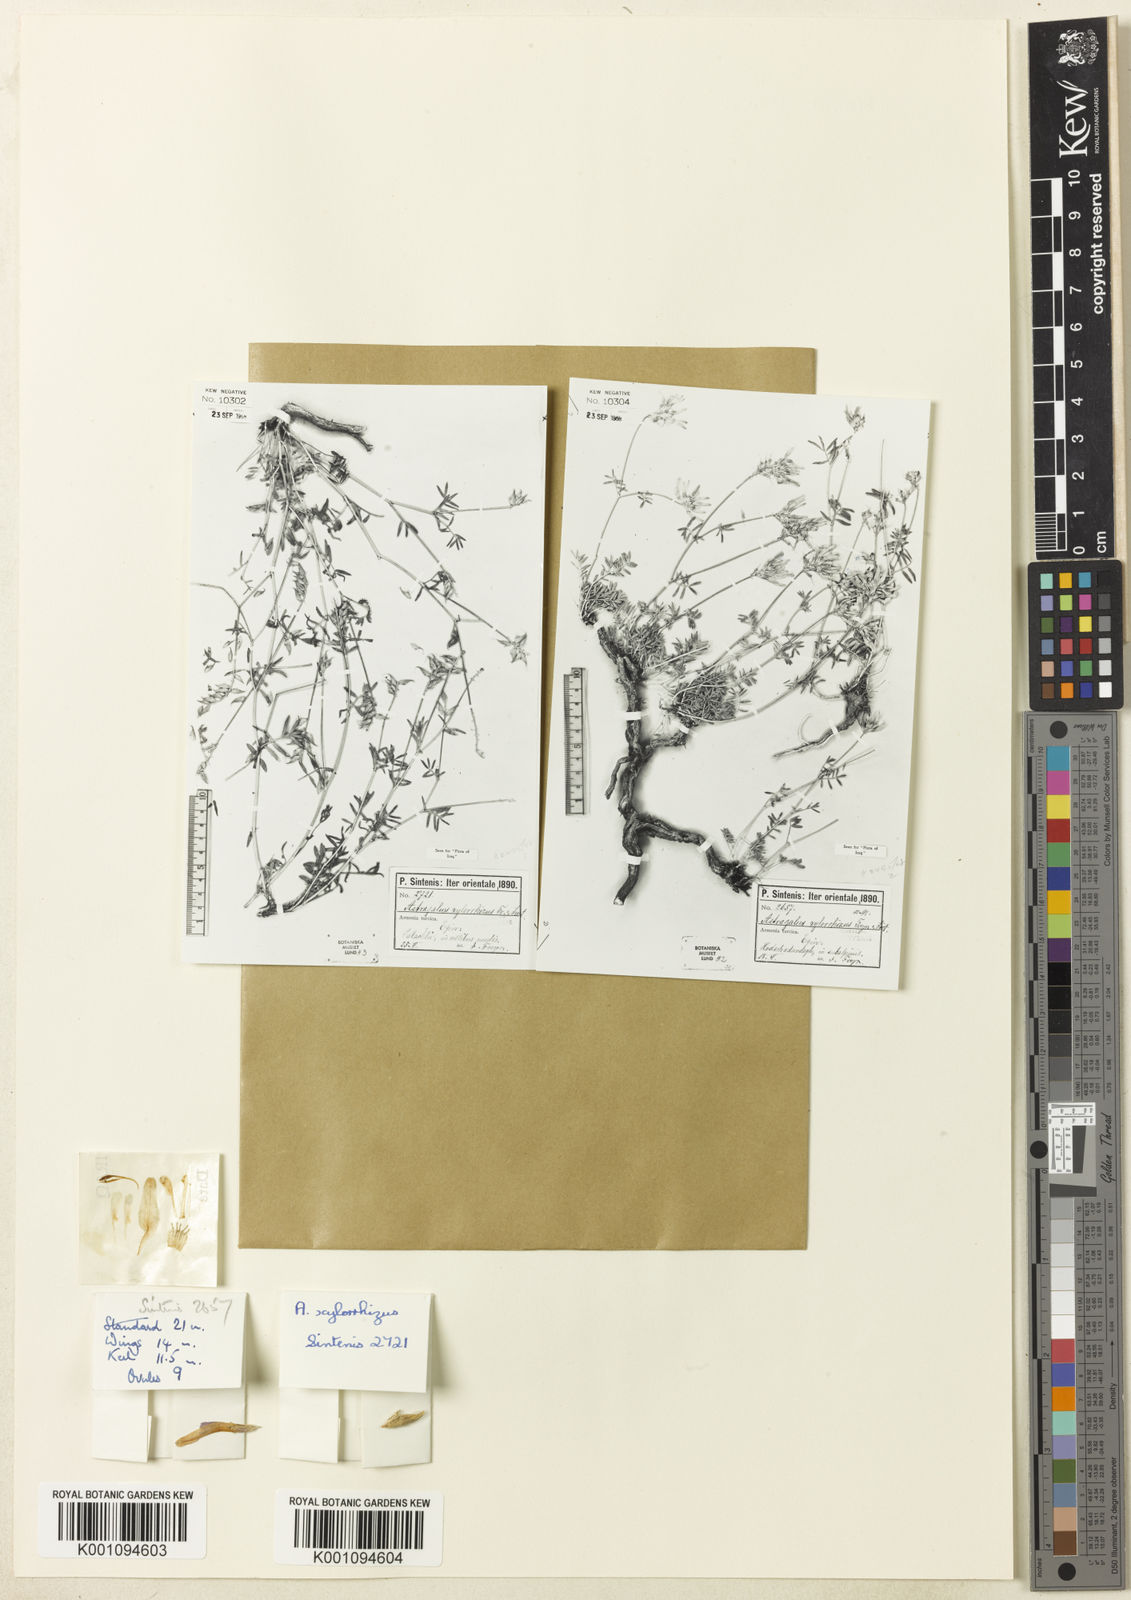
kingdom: Plantae
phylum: Tracheophyta
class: Magnoliopsida
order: Fabales
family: Fabaceae
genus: Astragalus
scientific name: Astragalus
